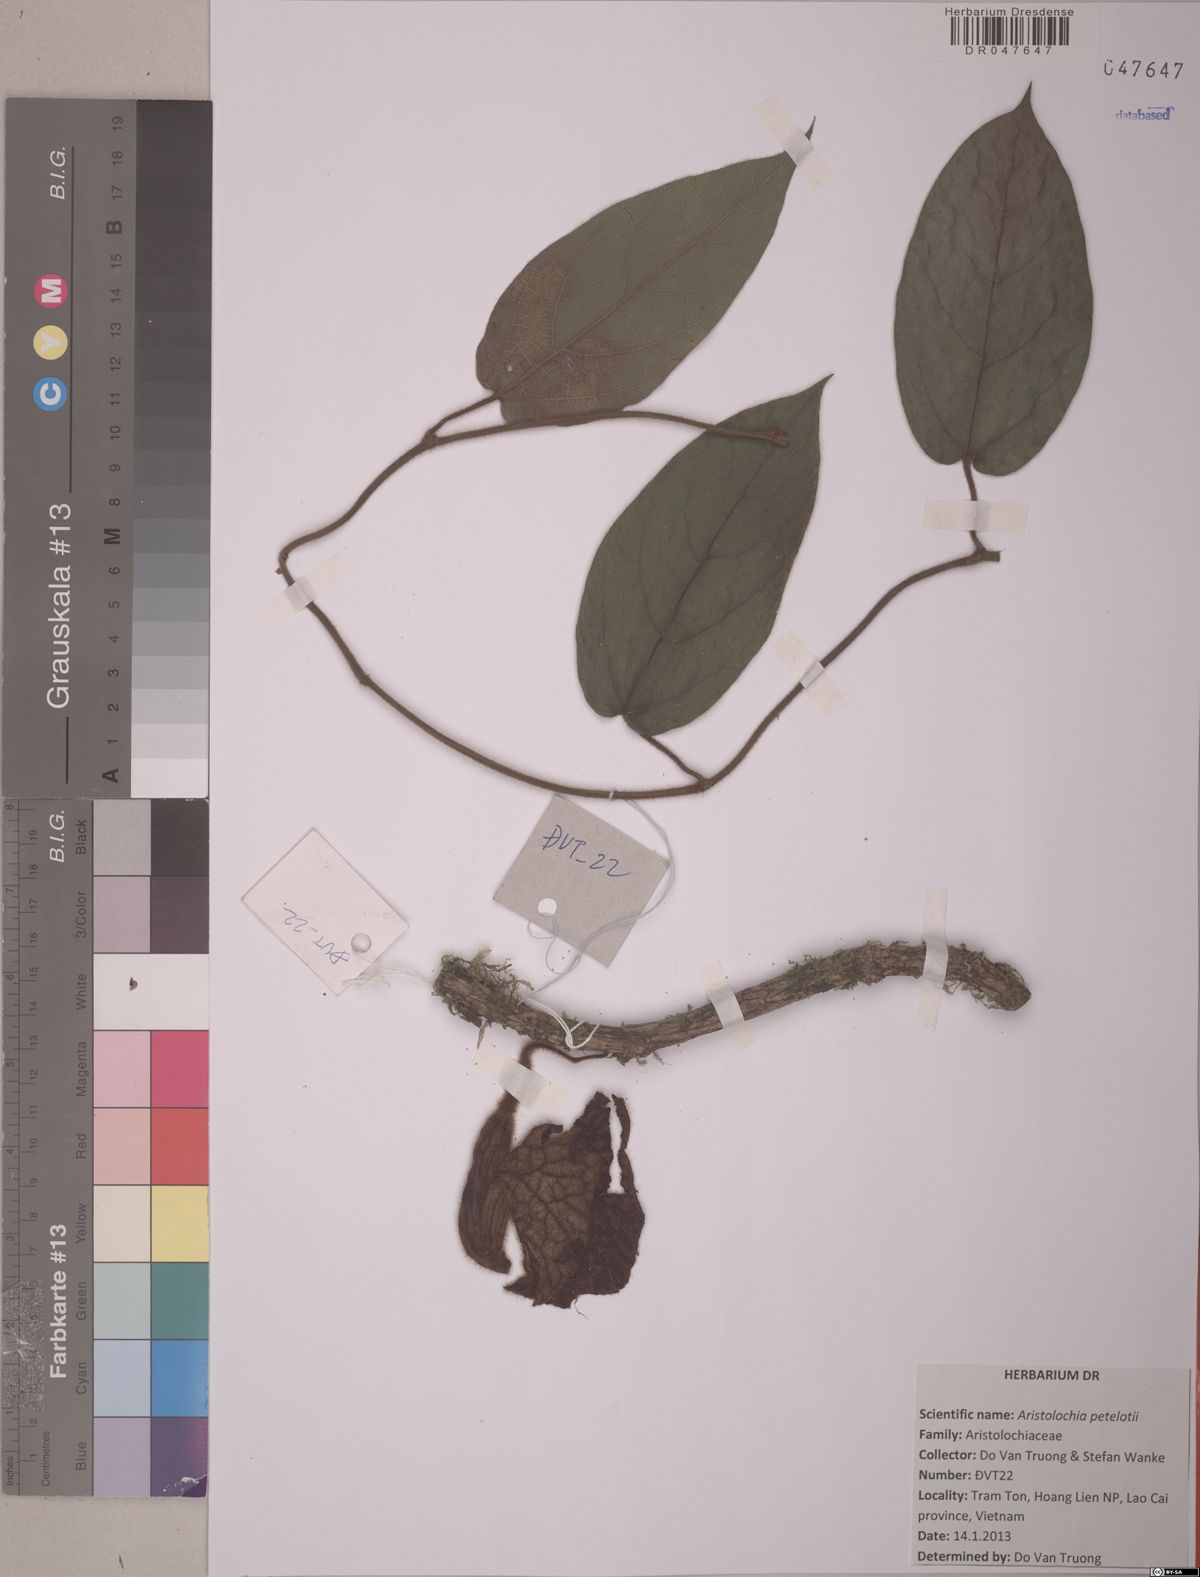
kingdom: Plantae
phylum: Tracheophyta
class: Magnoliopsida
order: Piperales
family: Aristolochiaceae
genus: Isotrema
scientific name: Isotrema petelotii
